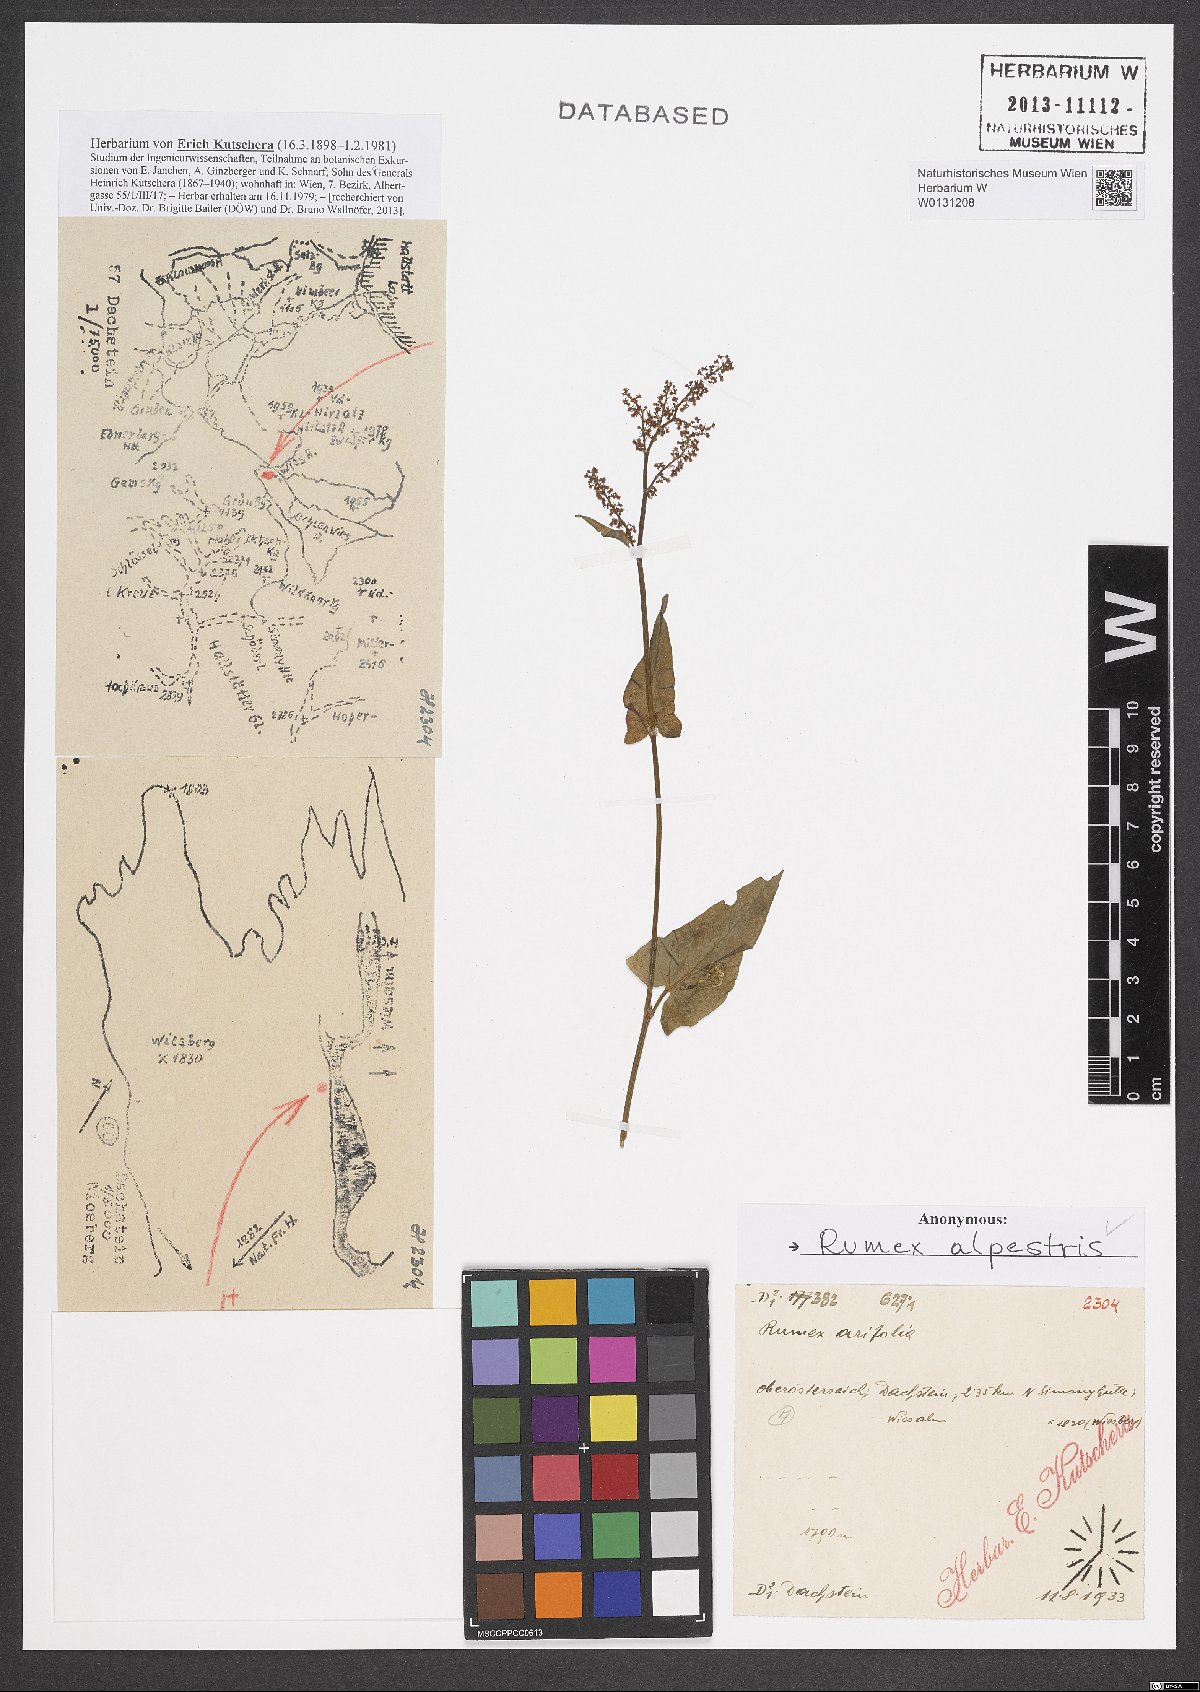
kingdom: Plantae
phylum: Tracheophyta
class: Magnoliopsida
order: Caryophyllales
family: Polygonaceae
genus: Rumex
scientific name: Rumex scutatus
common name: French sorrel
